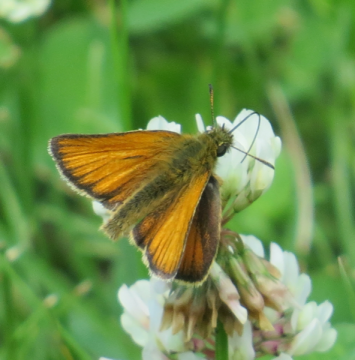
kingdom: Animalia
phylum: Arthropoda
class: Insecta
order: Lepidoptera
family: Hesperiidae
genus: Thymelicus
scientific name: Thymelicus lineola
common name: European Skipper
